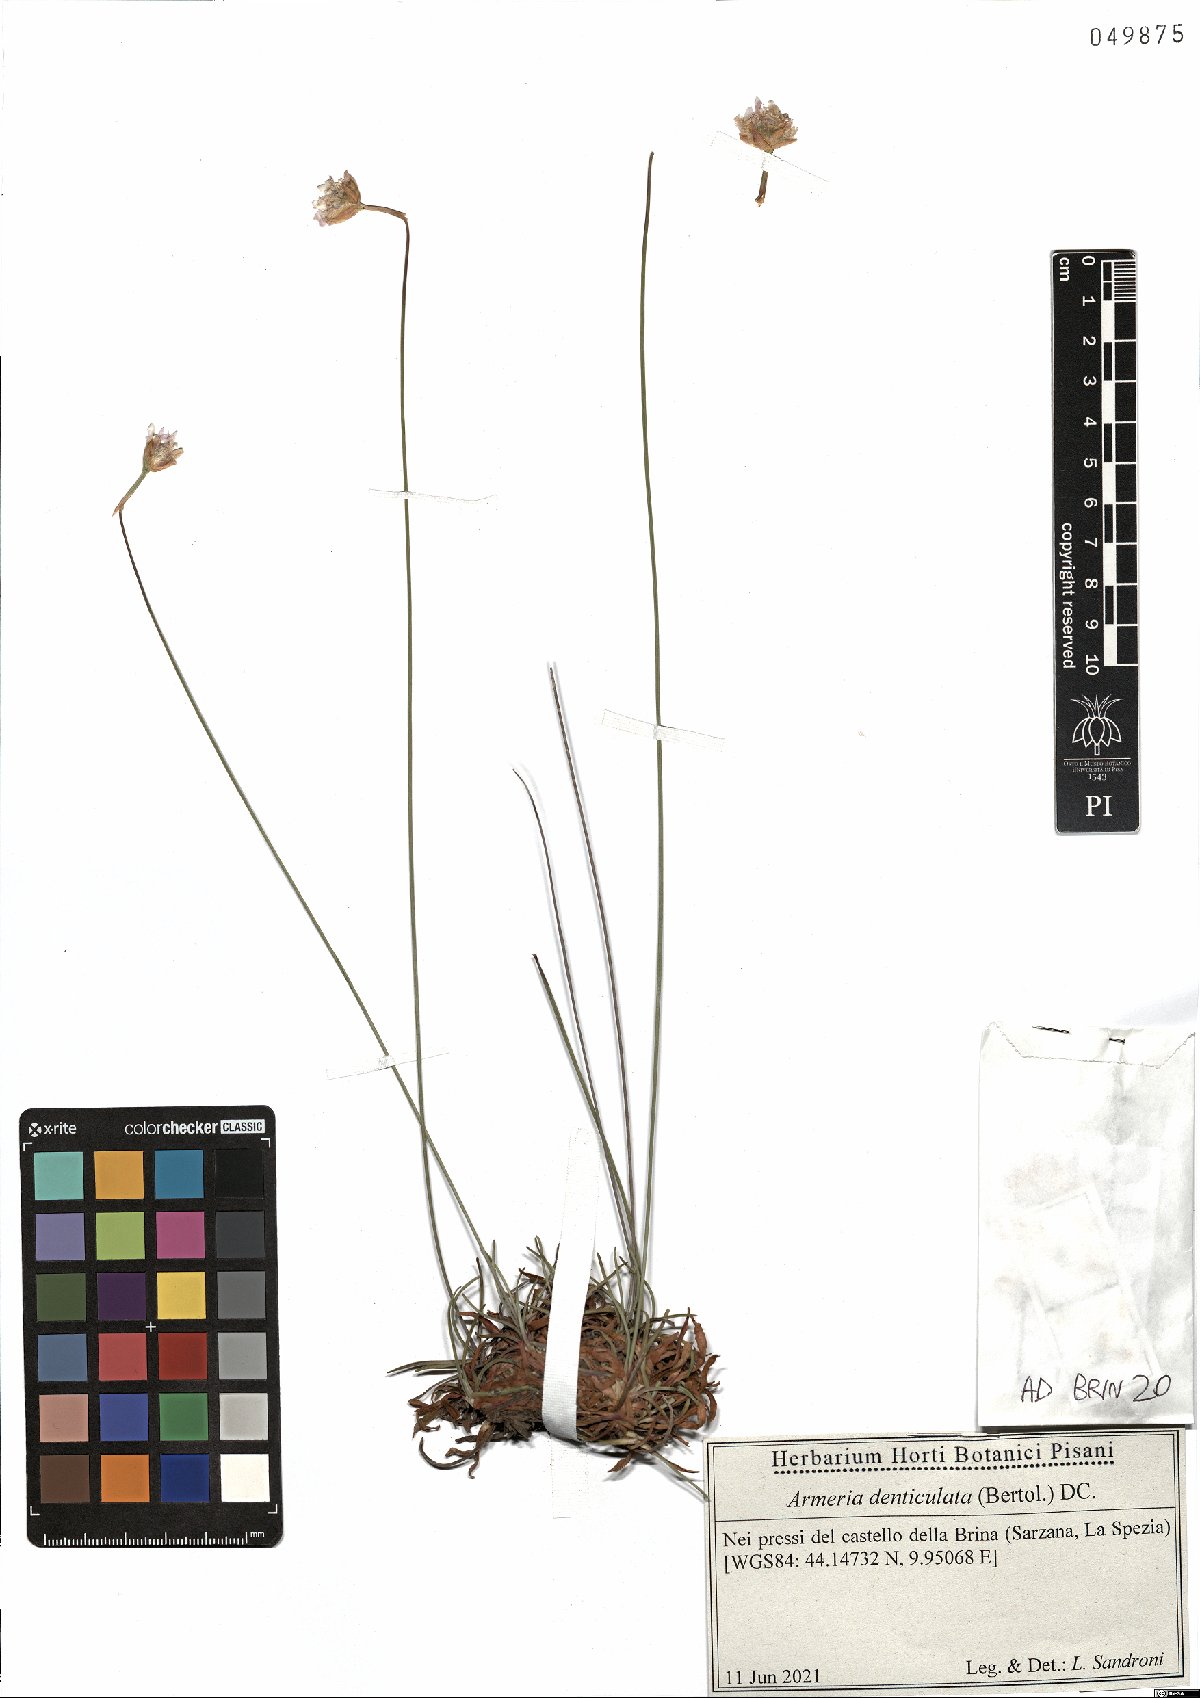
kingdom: Plantae
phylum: Tracheophyta
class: Magnoliopsida
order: Caryophyllales
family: Plumbaginaceae
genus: Armeria
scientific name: Armeria denticulata
